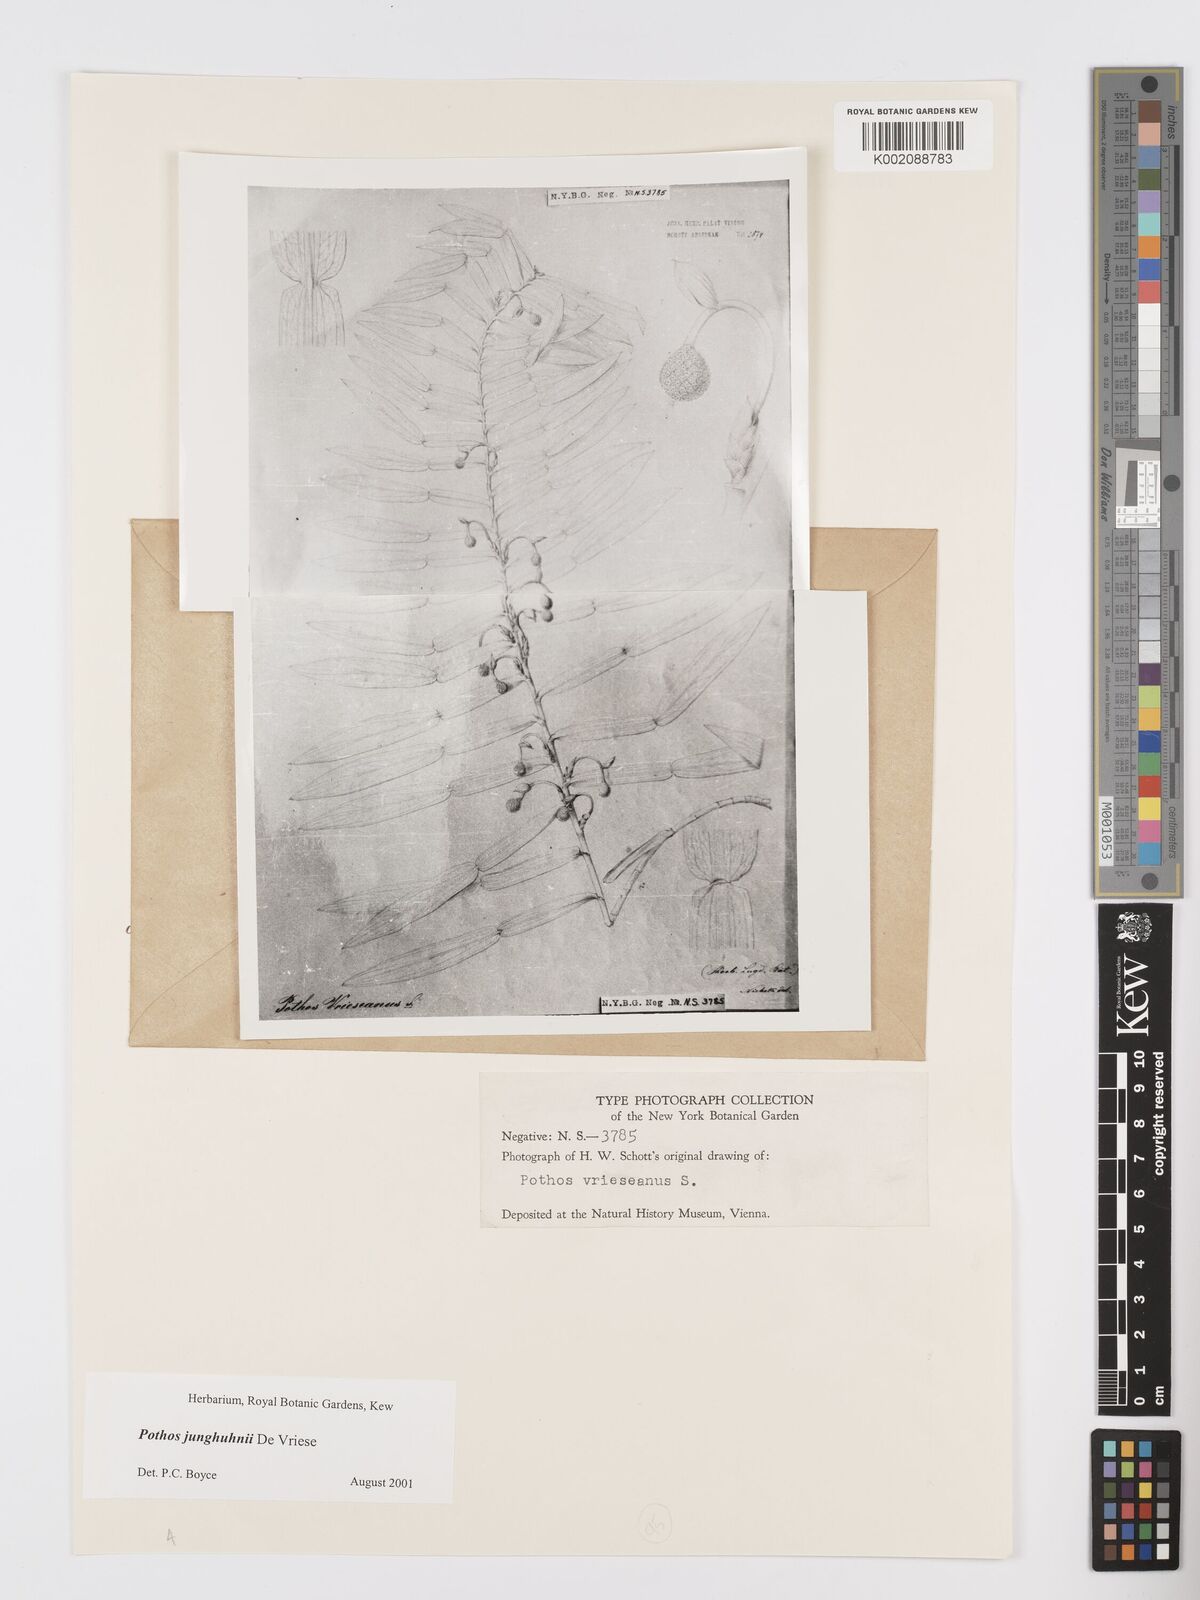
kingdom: Plantae
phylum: Tracheophyta
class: Liliopsida
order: Alismatales
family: Araceae
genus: Pothos
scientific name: Pothos junghuhnii
